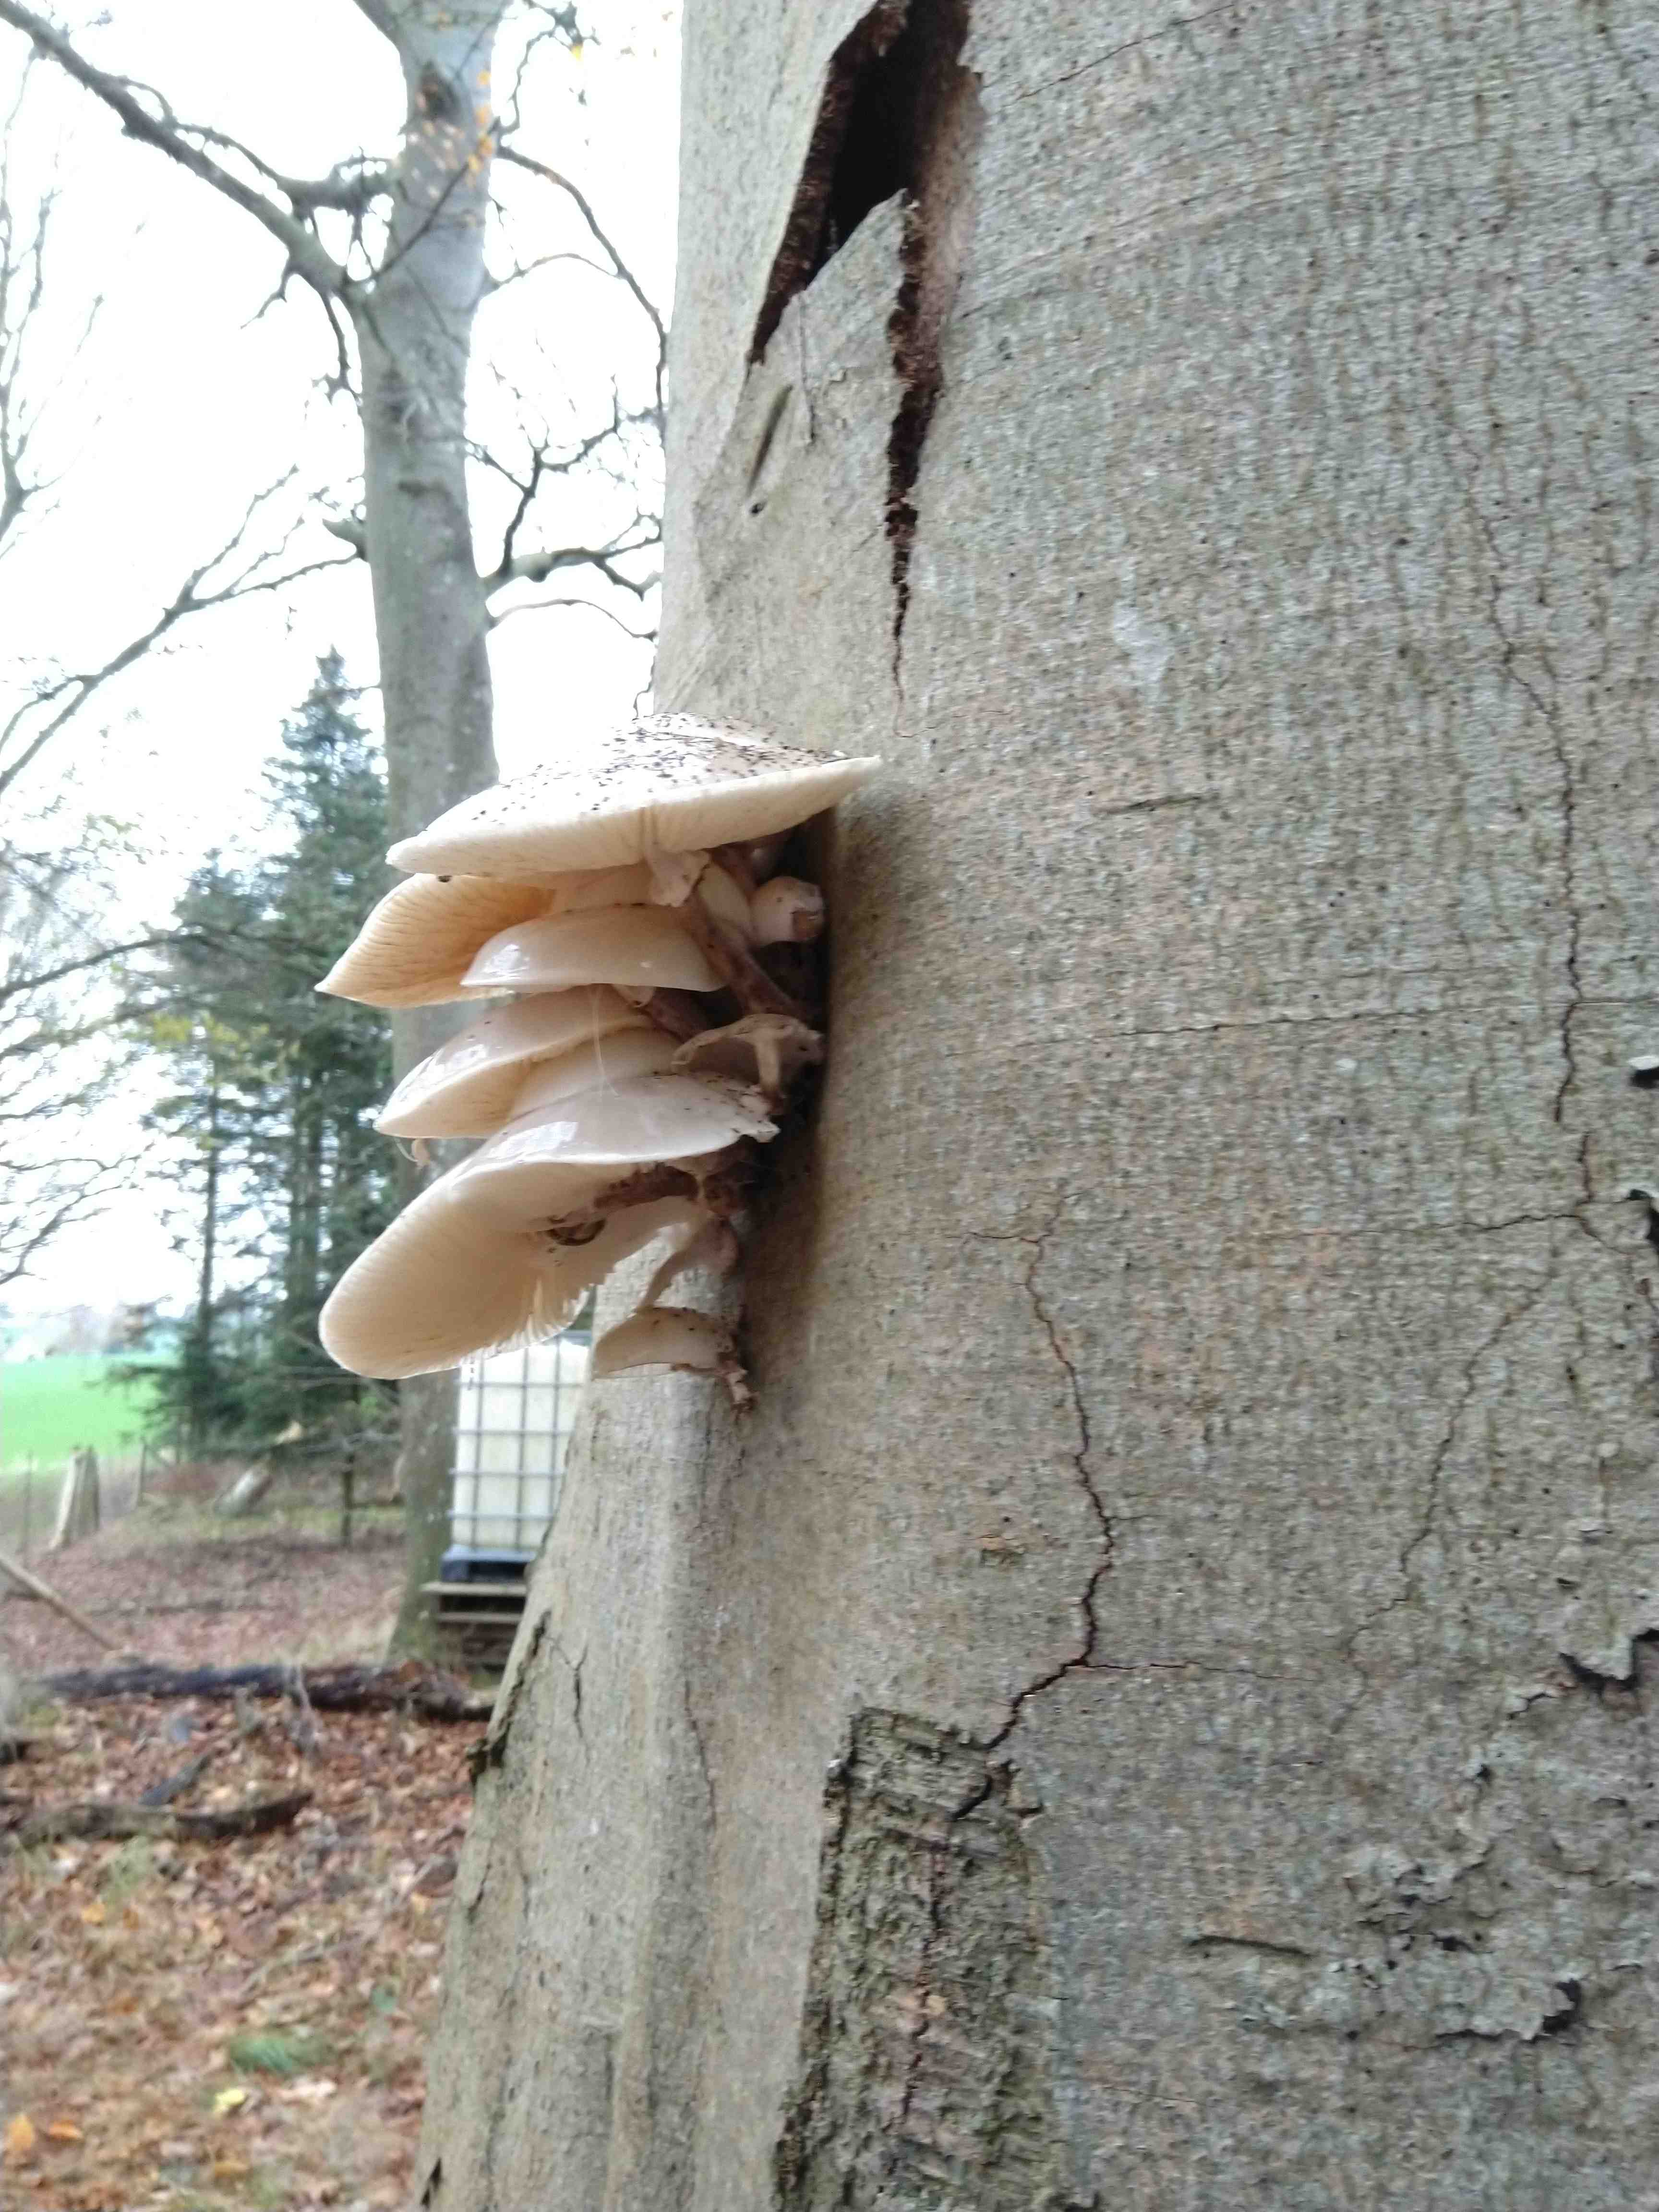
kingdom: Fungi
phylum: Basidiomycota
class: Agaricomycetes
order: Agaricales
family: Physalacriaceae
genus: Mucidula
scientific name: Mucidula mucida
